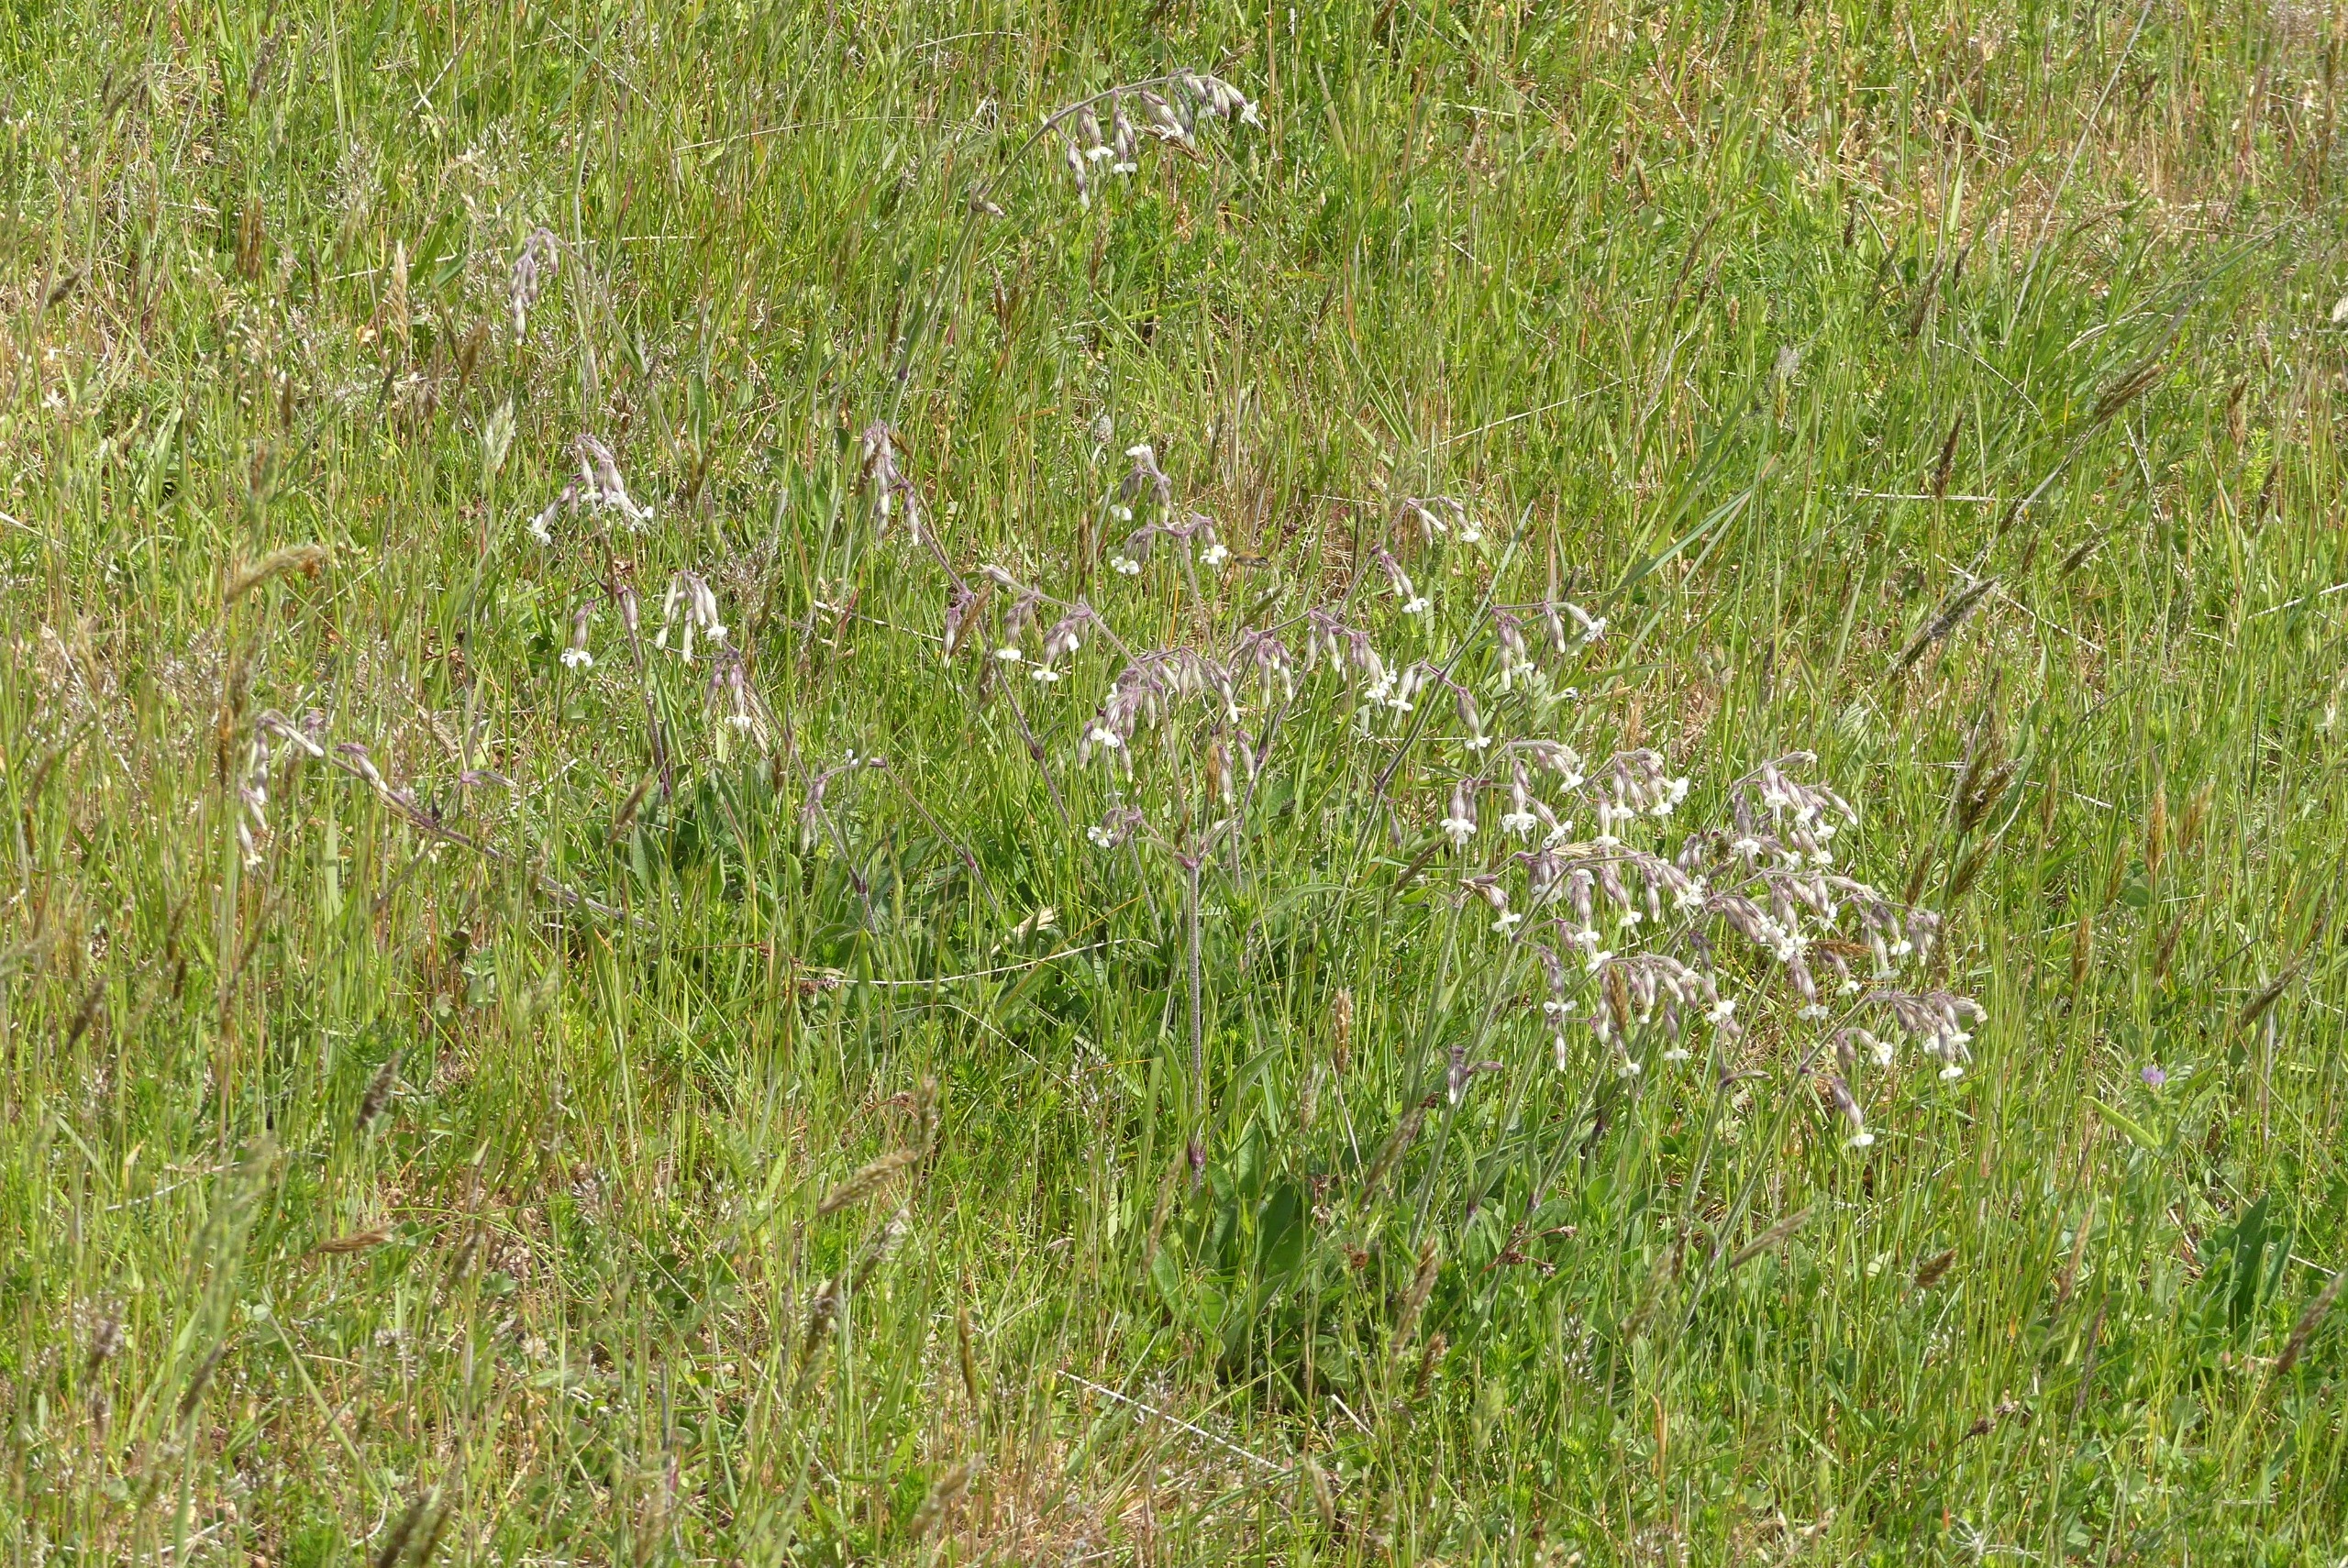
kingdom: Plantae
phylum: Tracheophyta
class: Magnoliopsida
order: Caryophyllales
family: Caryophyllaceae
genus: Silene
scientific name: Silene nutans
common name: Nikkende limurt
